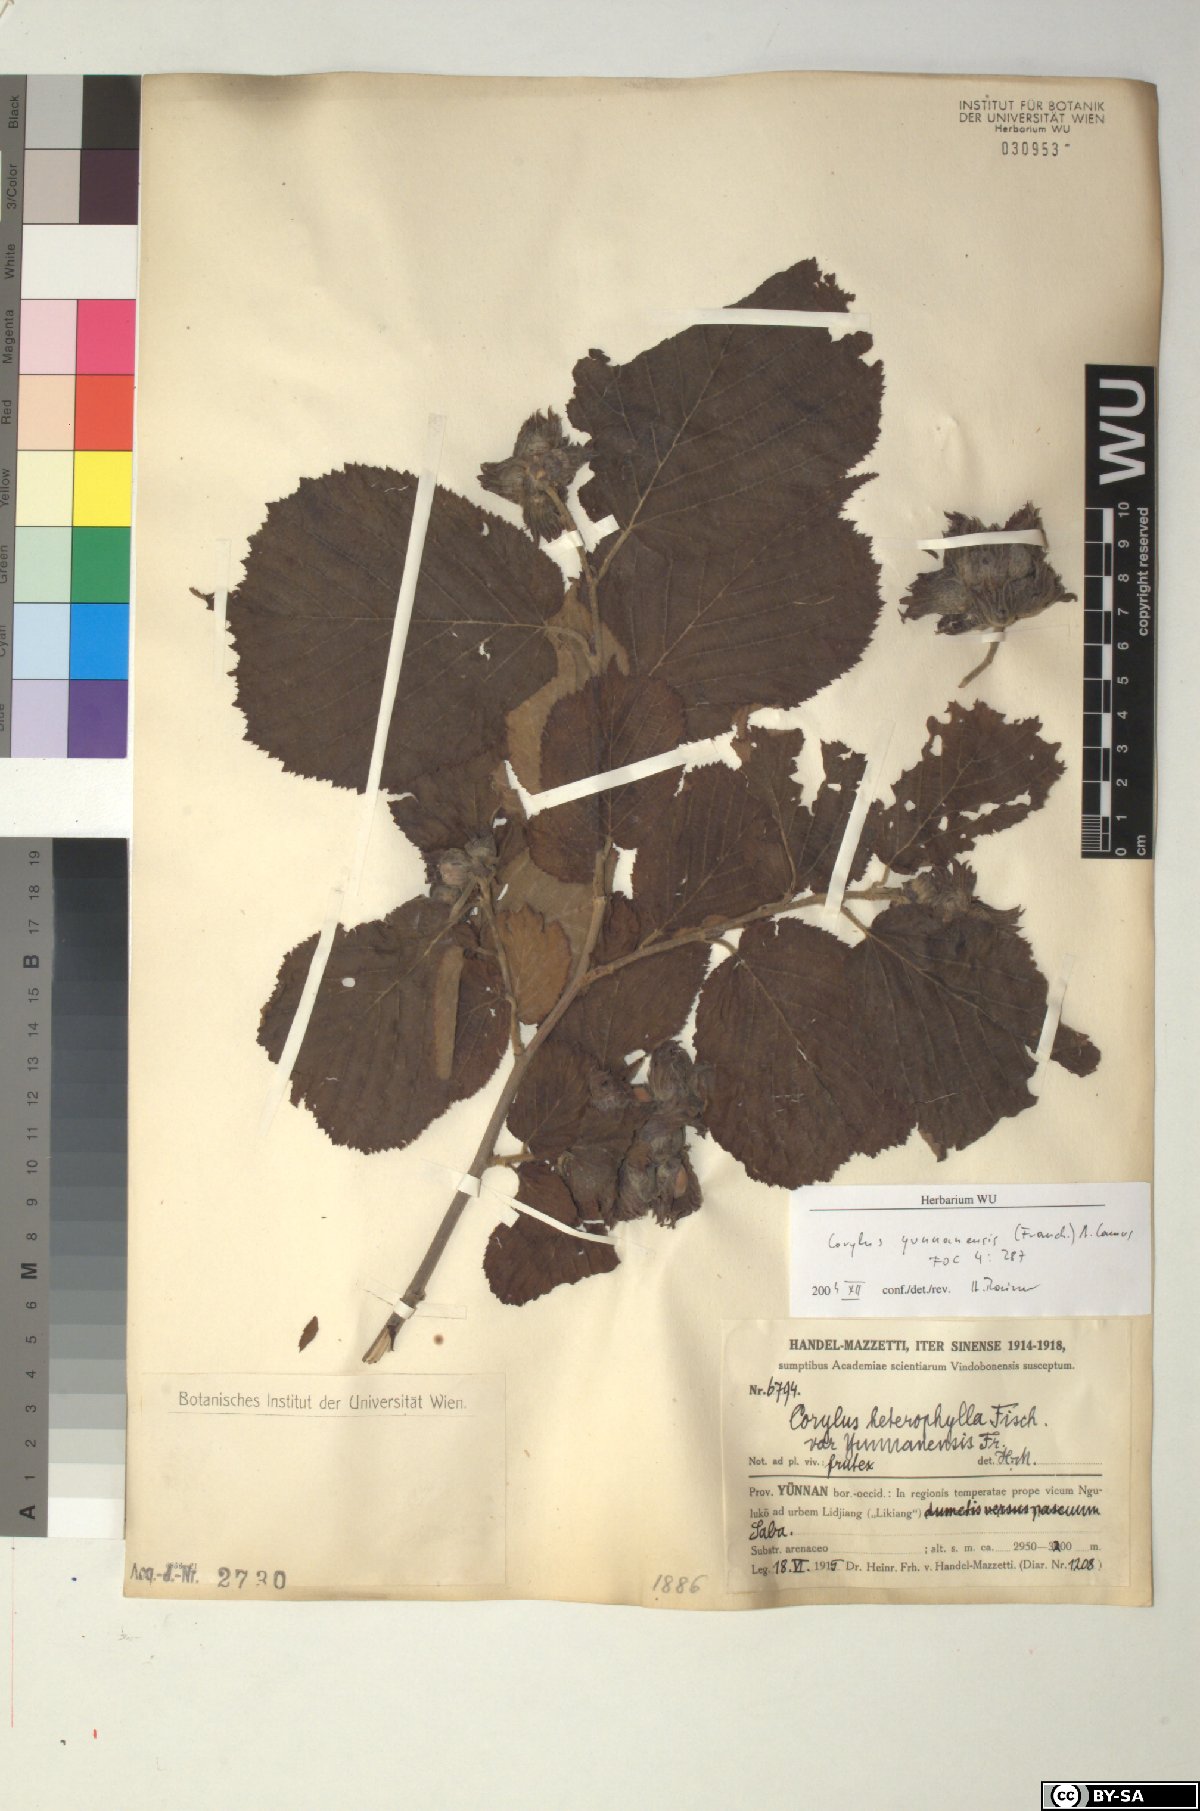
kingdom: Plantae
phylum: Tracheophyta
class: Magnoliopsida
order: Fagales
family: Betulaceae
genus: Corylus
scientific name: Corylus yunnanensis
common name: Yunnan hazel
